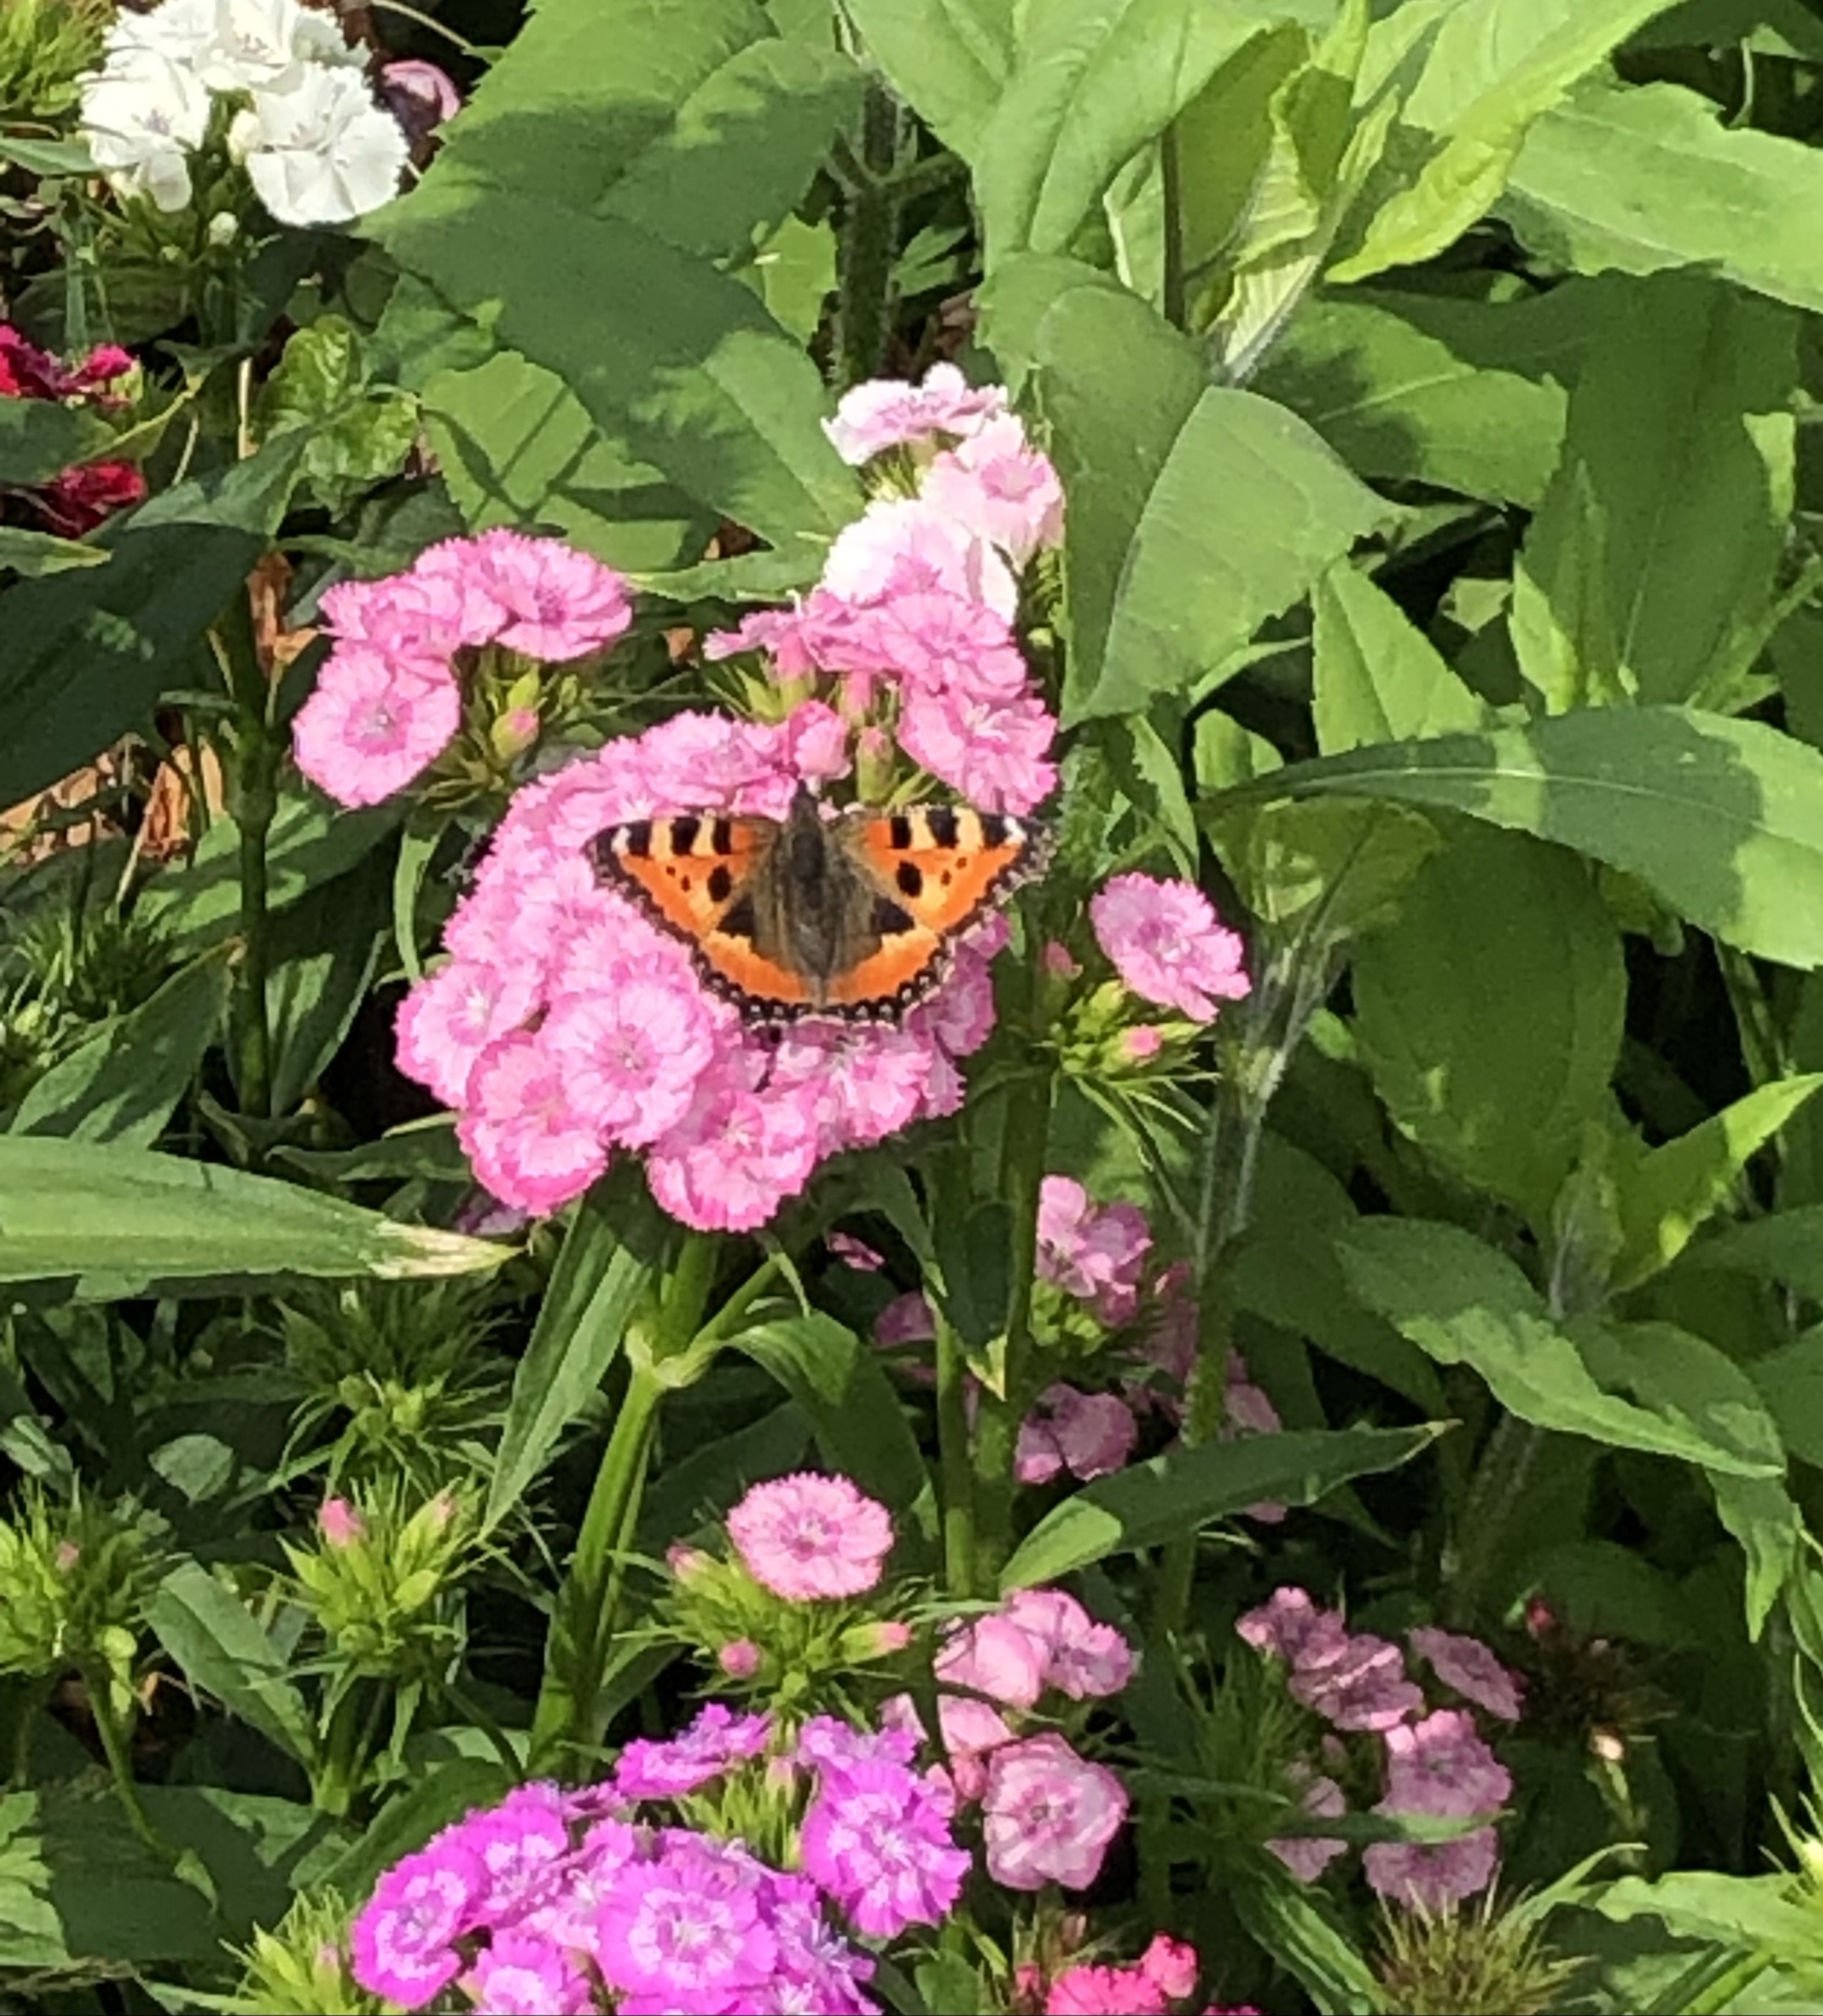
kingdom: Animalia
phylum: Arthropoda
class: Insecta
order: Lepidoptera
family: Nymphalidae
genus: Aglais
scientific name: Aglais urticae
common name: Nældens takvinge
